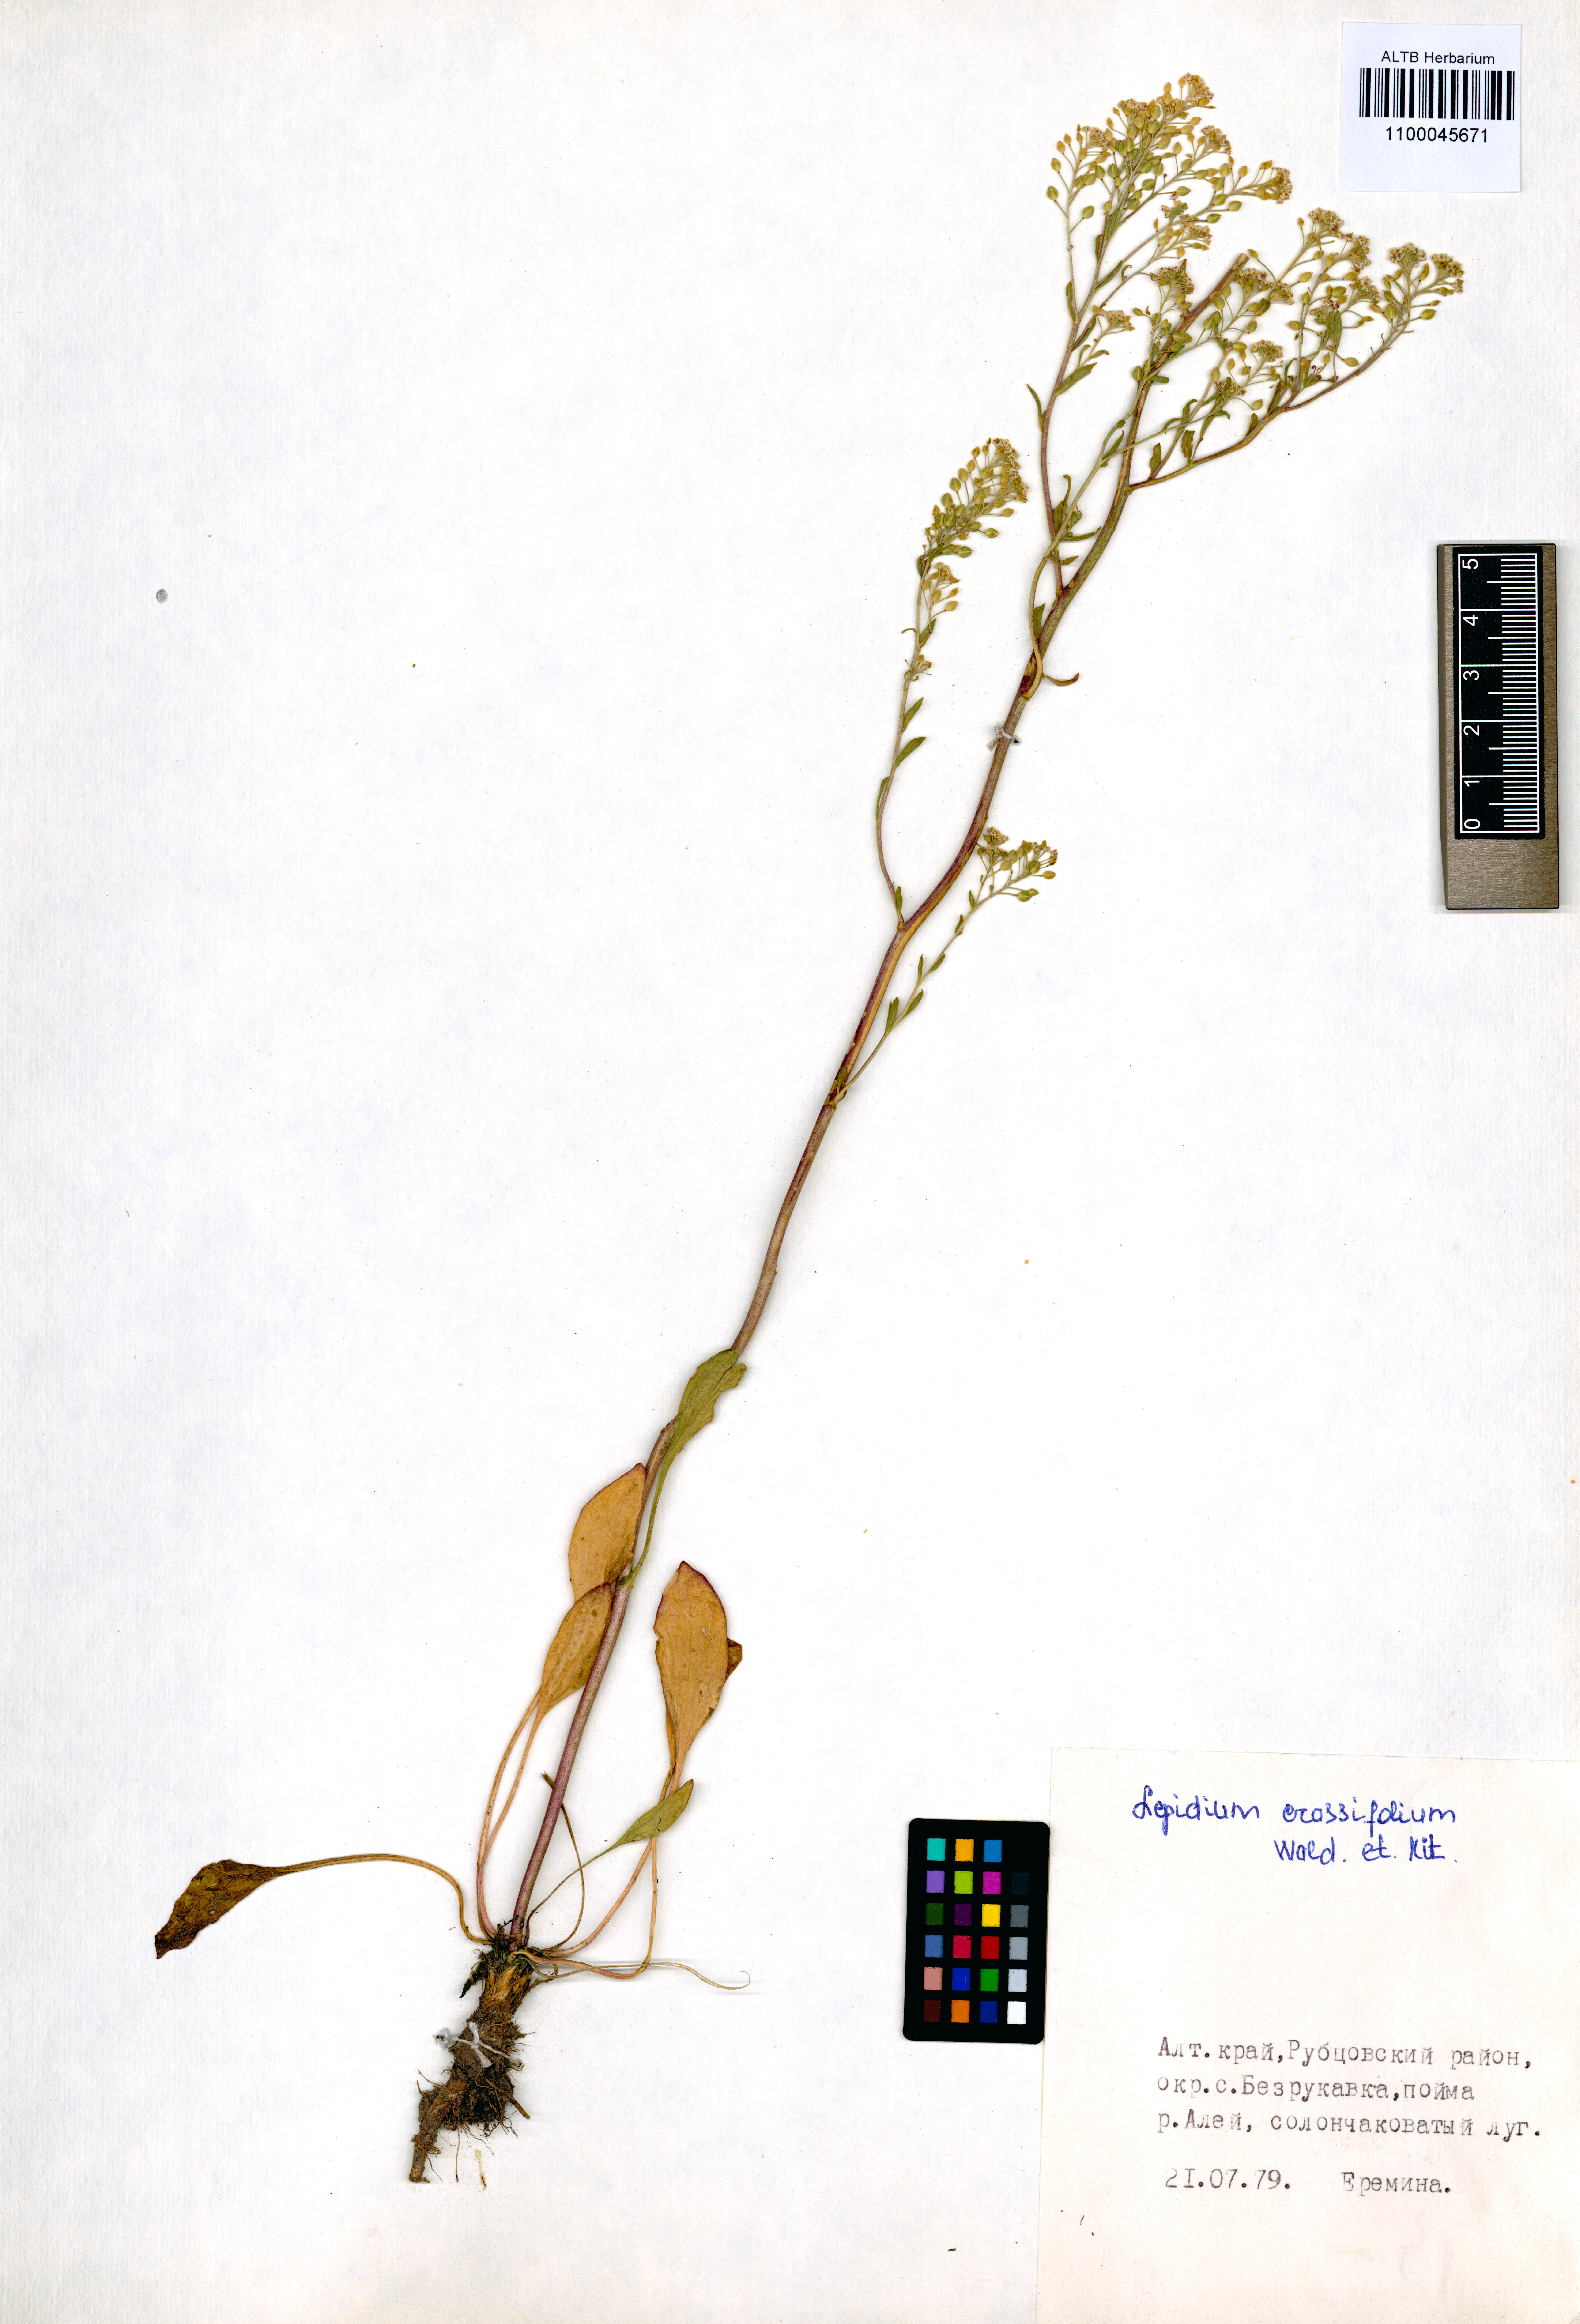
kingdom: Plantae
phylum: Tracheophyta
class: Magnoliopsida
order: Brassicales
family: Brassicaceae
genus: Lepidium
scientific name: Lepidium cartilagineum
